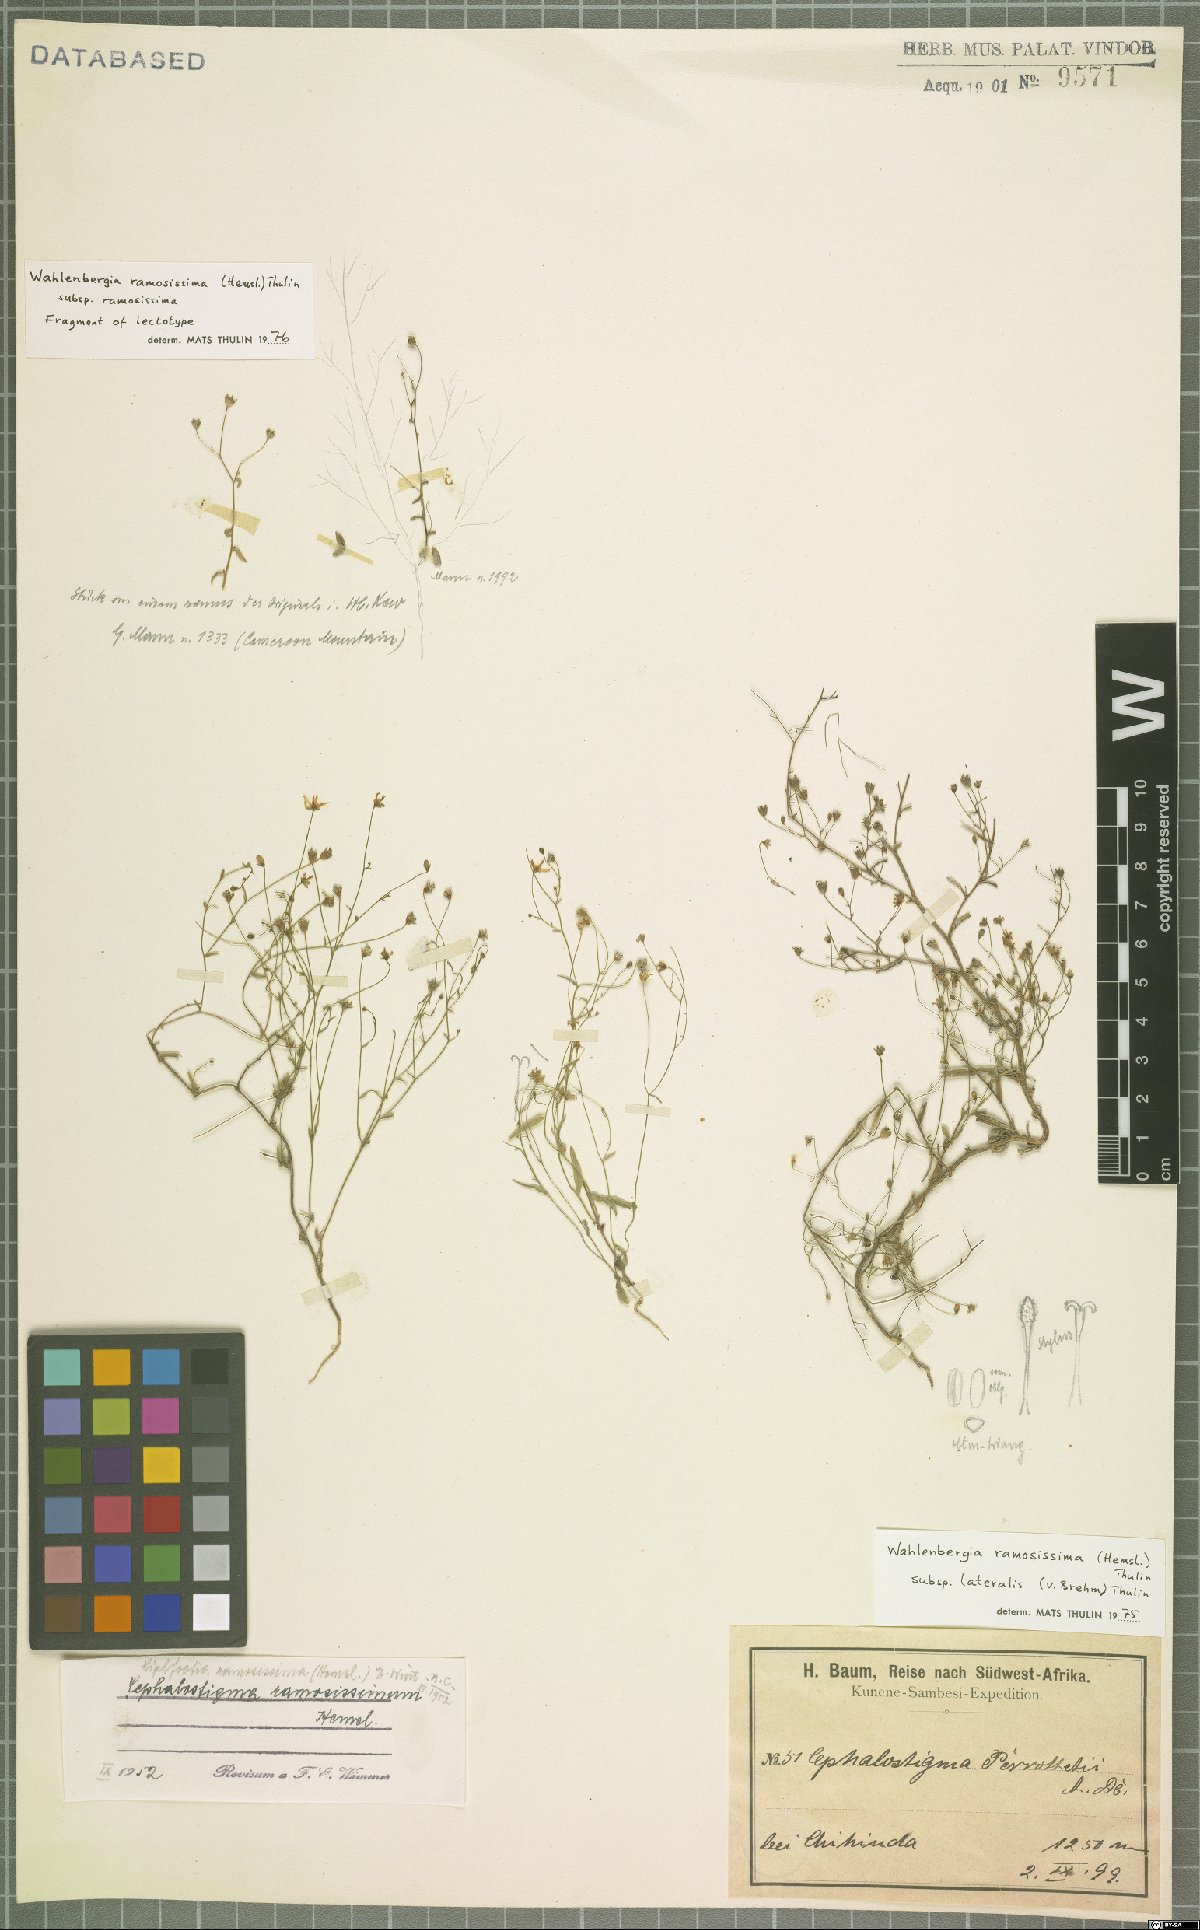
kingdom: Plantae
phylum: Tracheophyta
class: Magnoliopsida
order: Asterales
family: Campanulaceae
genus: Wahlenbergia
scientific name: Wahlenbergia ramosissima
